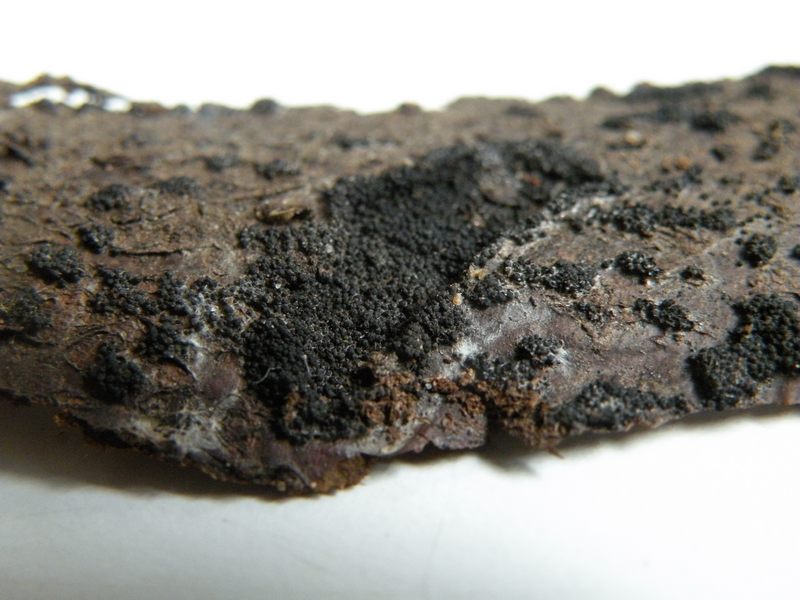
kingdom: Fungi
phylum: Ascomycota
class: Dothideomycetes
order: Pleosporales
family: Melanommataceae
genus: Melanomma
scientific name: Melanomma pulvis-pyrius
